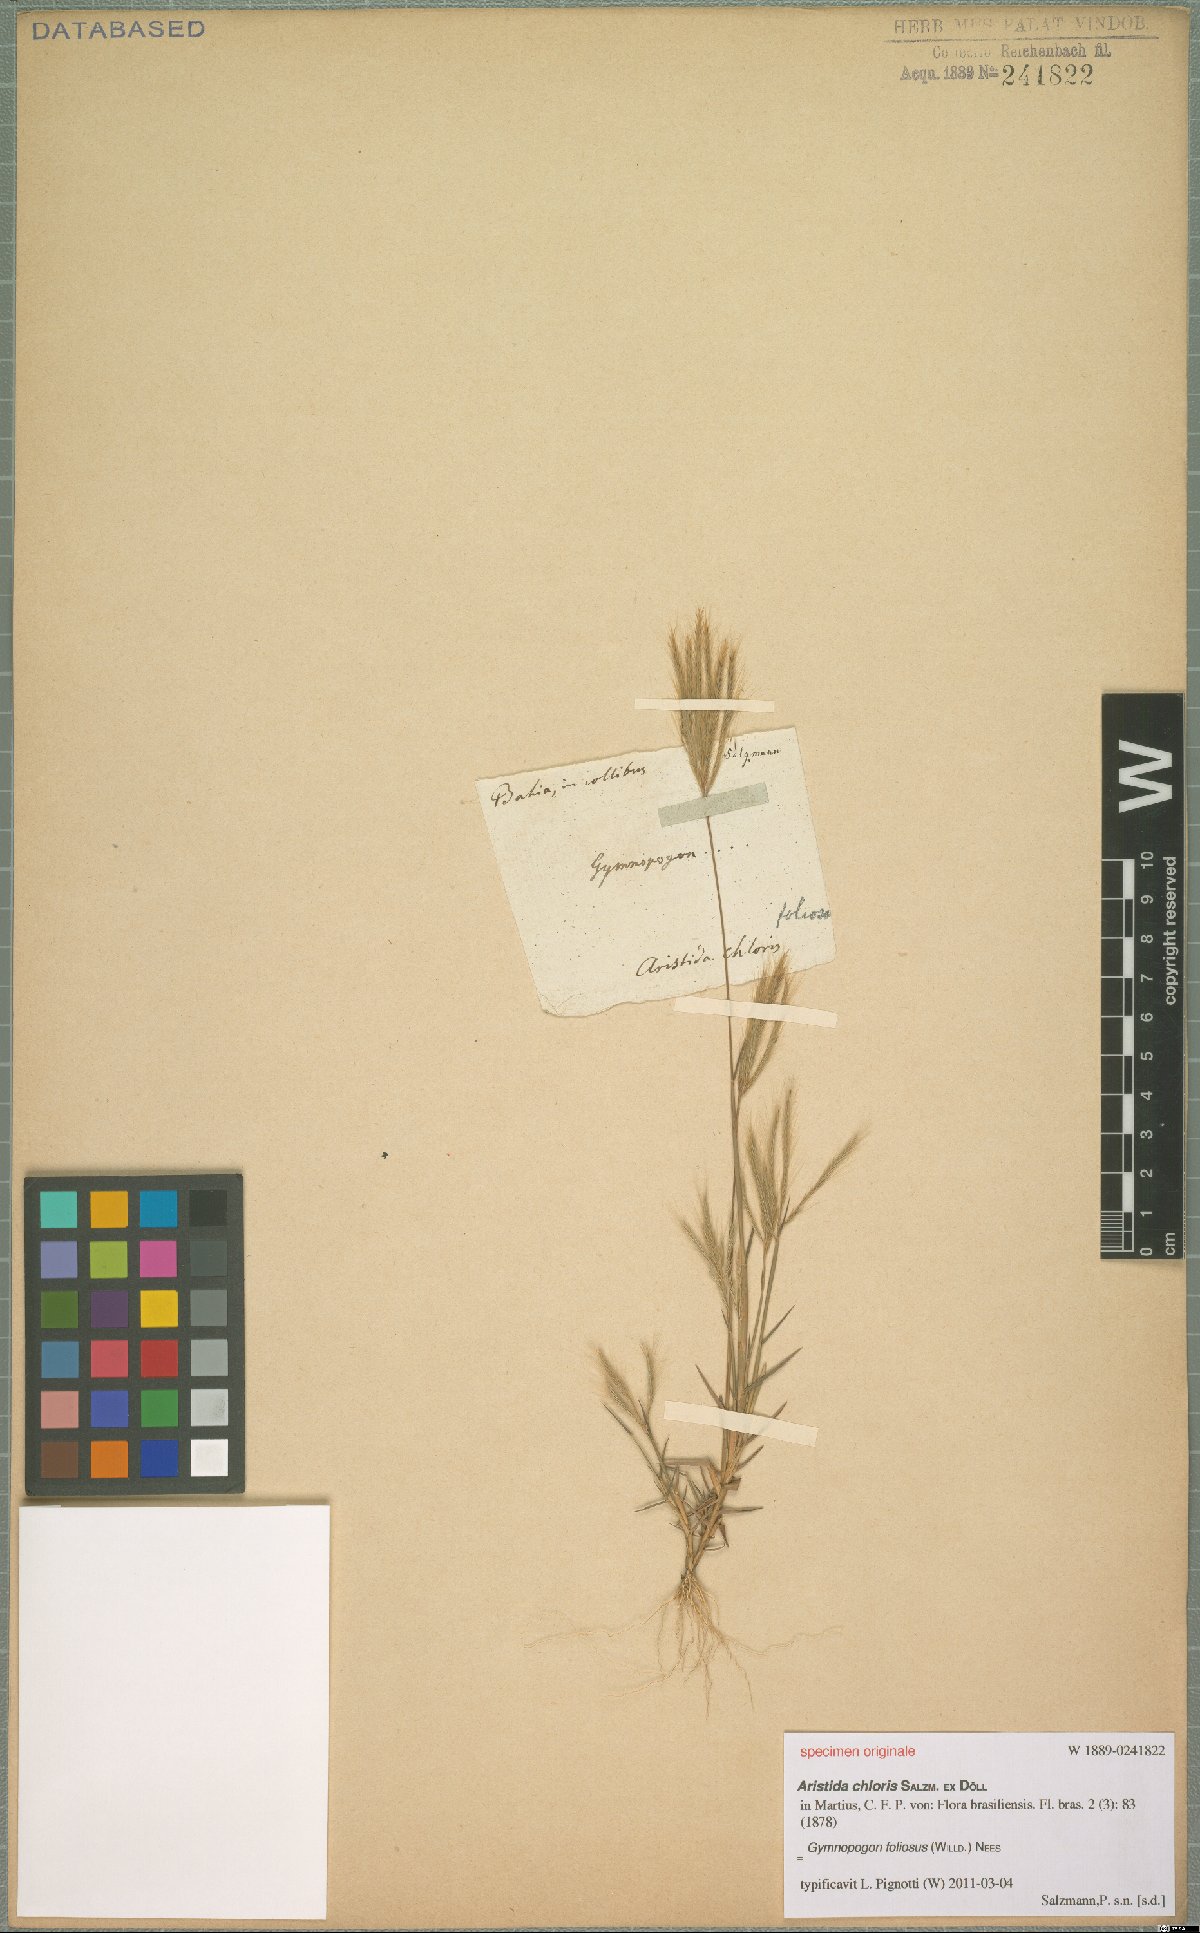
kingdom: Plantae
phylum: Tracheophyta
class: Liliopsida
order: Poales
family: Poaceae
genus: Gymnopogon
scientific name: Gymnopogon foliosus
